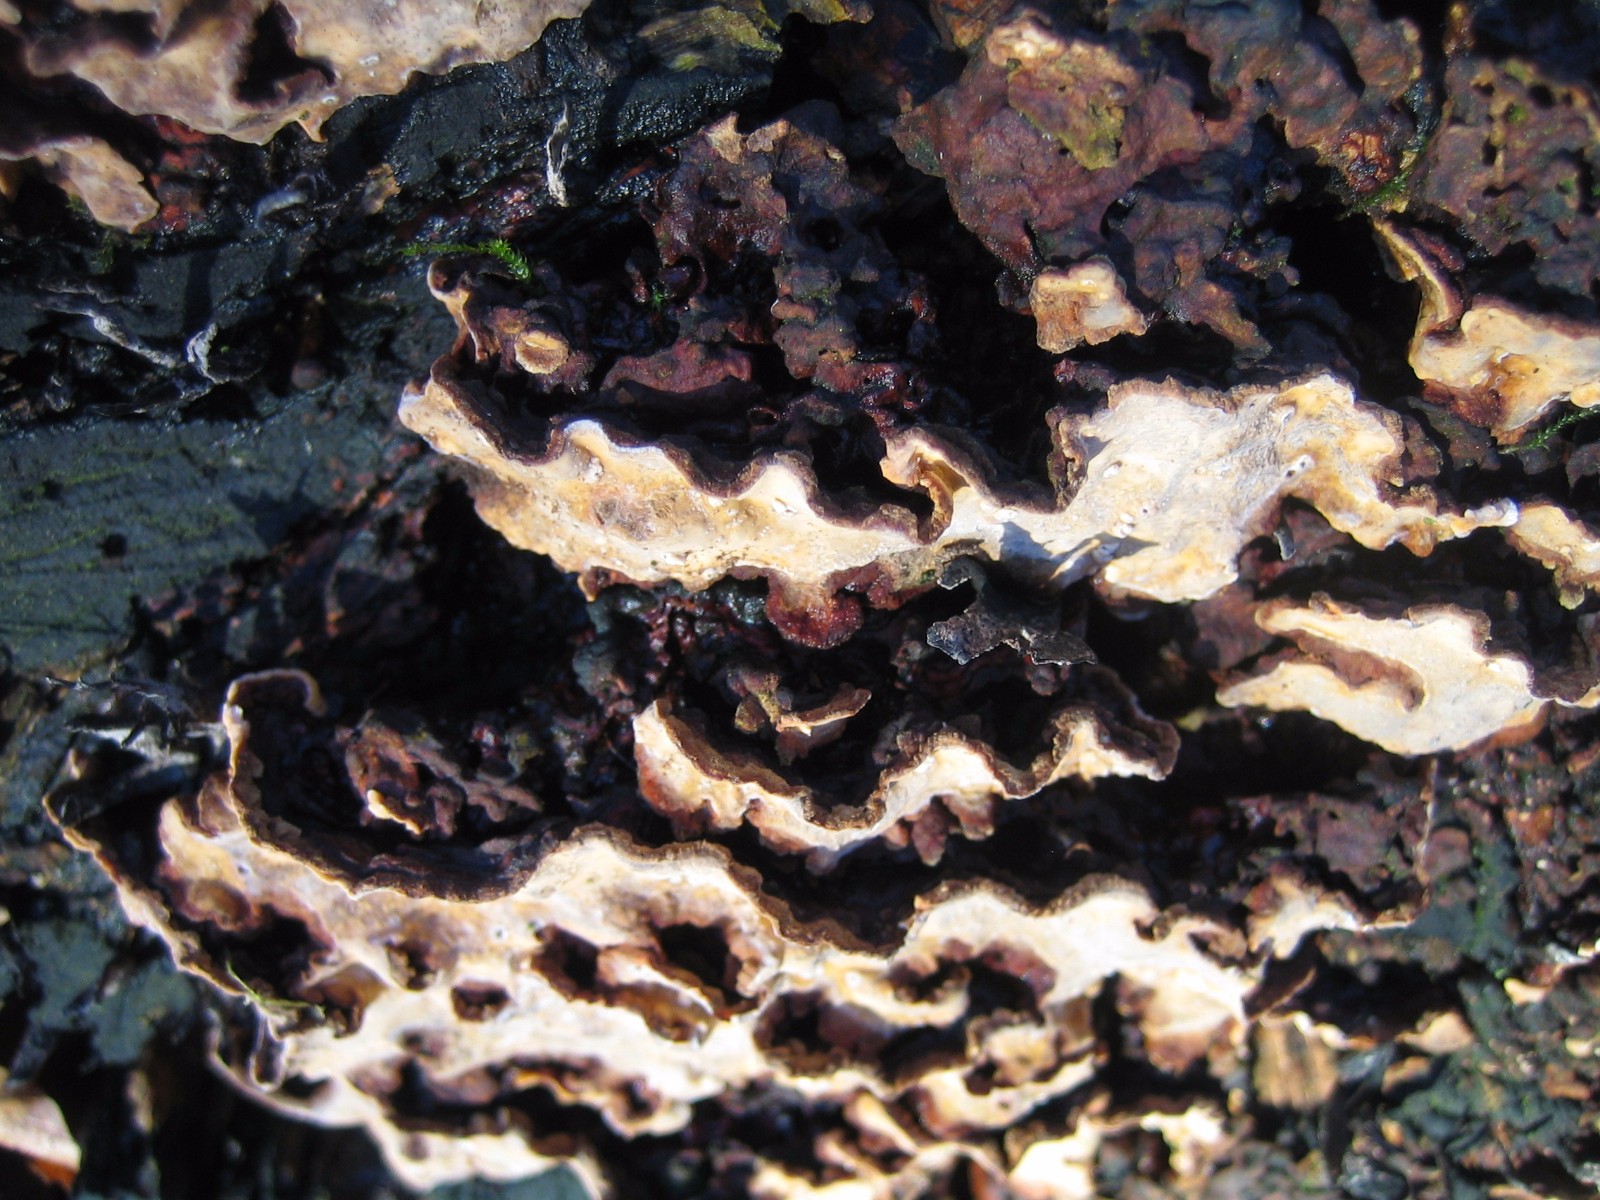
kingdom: Fungi
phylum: Basidiomycota
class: Agaricomycetes
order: Russulales
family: Stereaceae
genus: Stereum
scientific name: Stereum rugosum
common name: rynket lædersvamp
